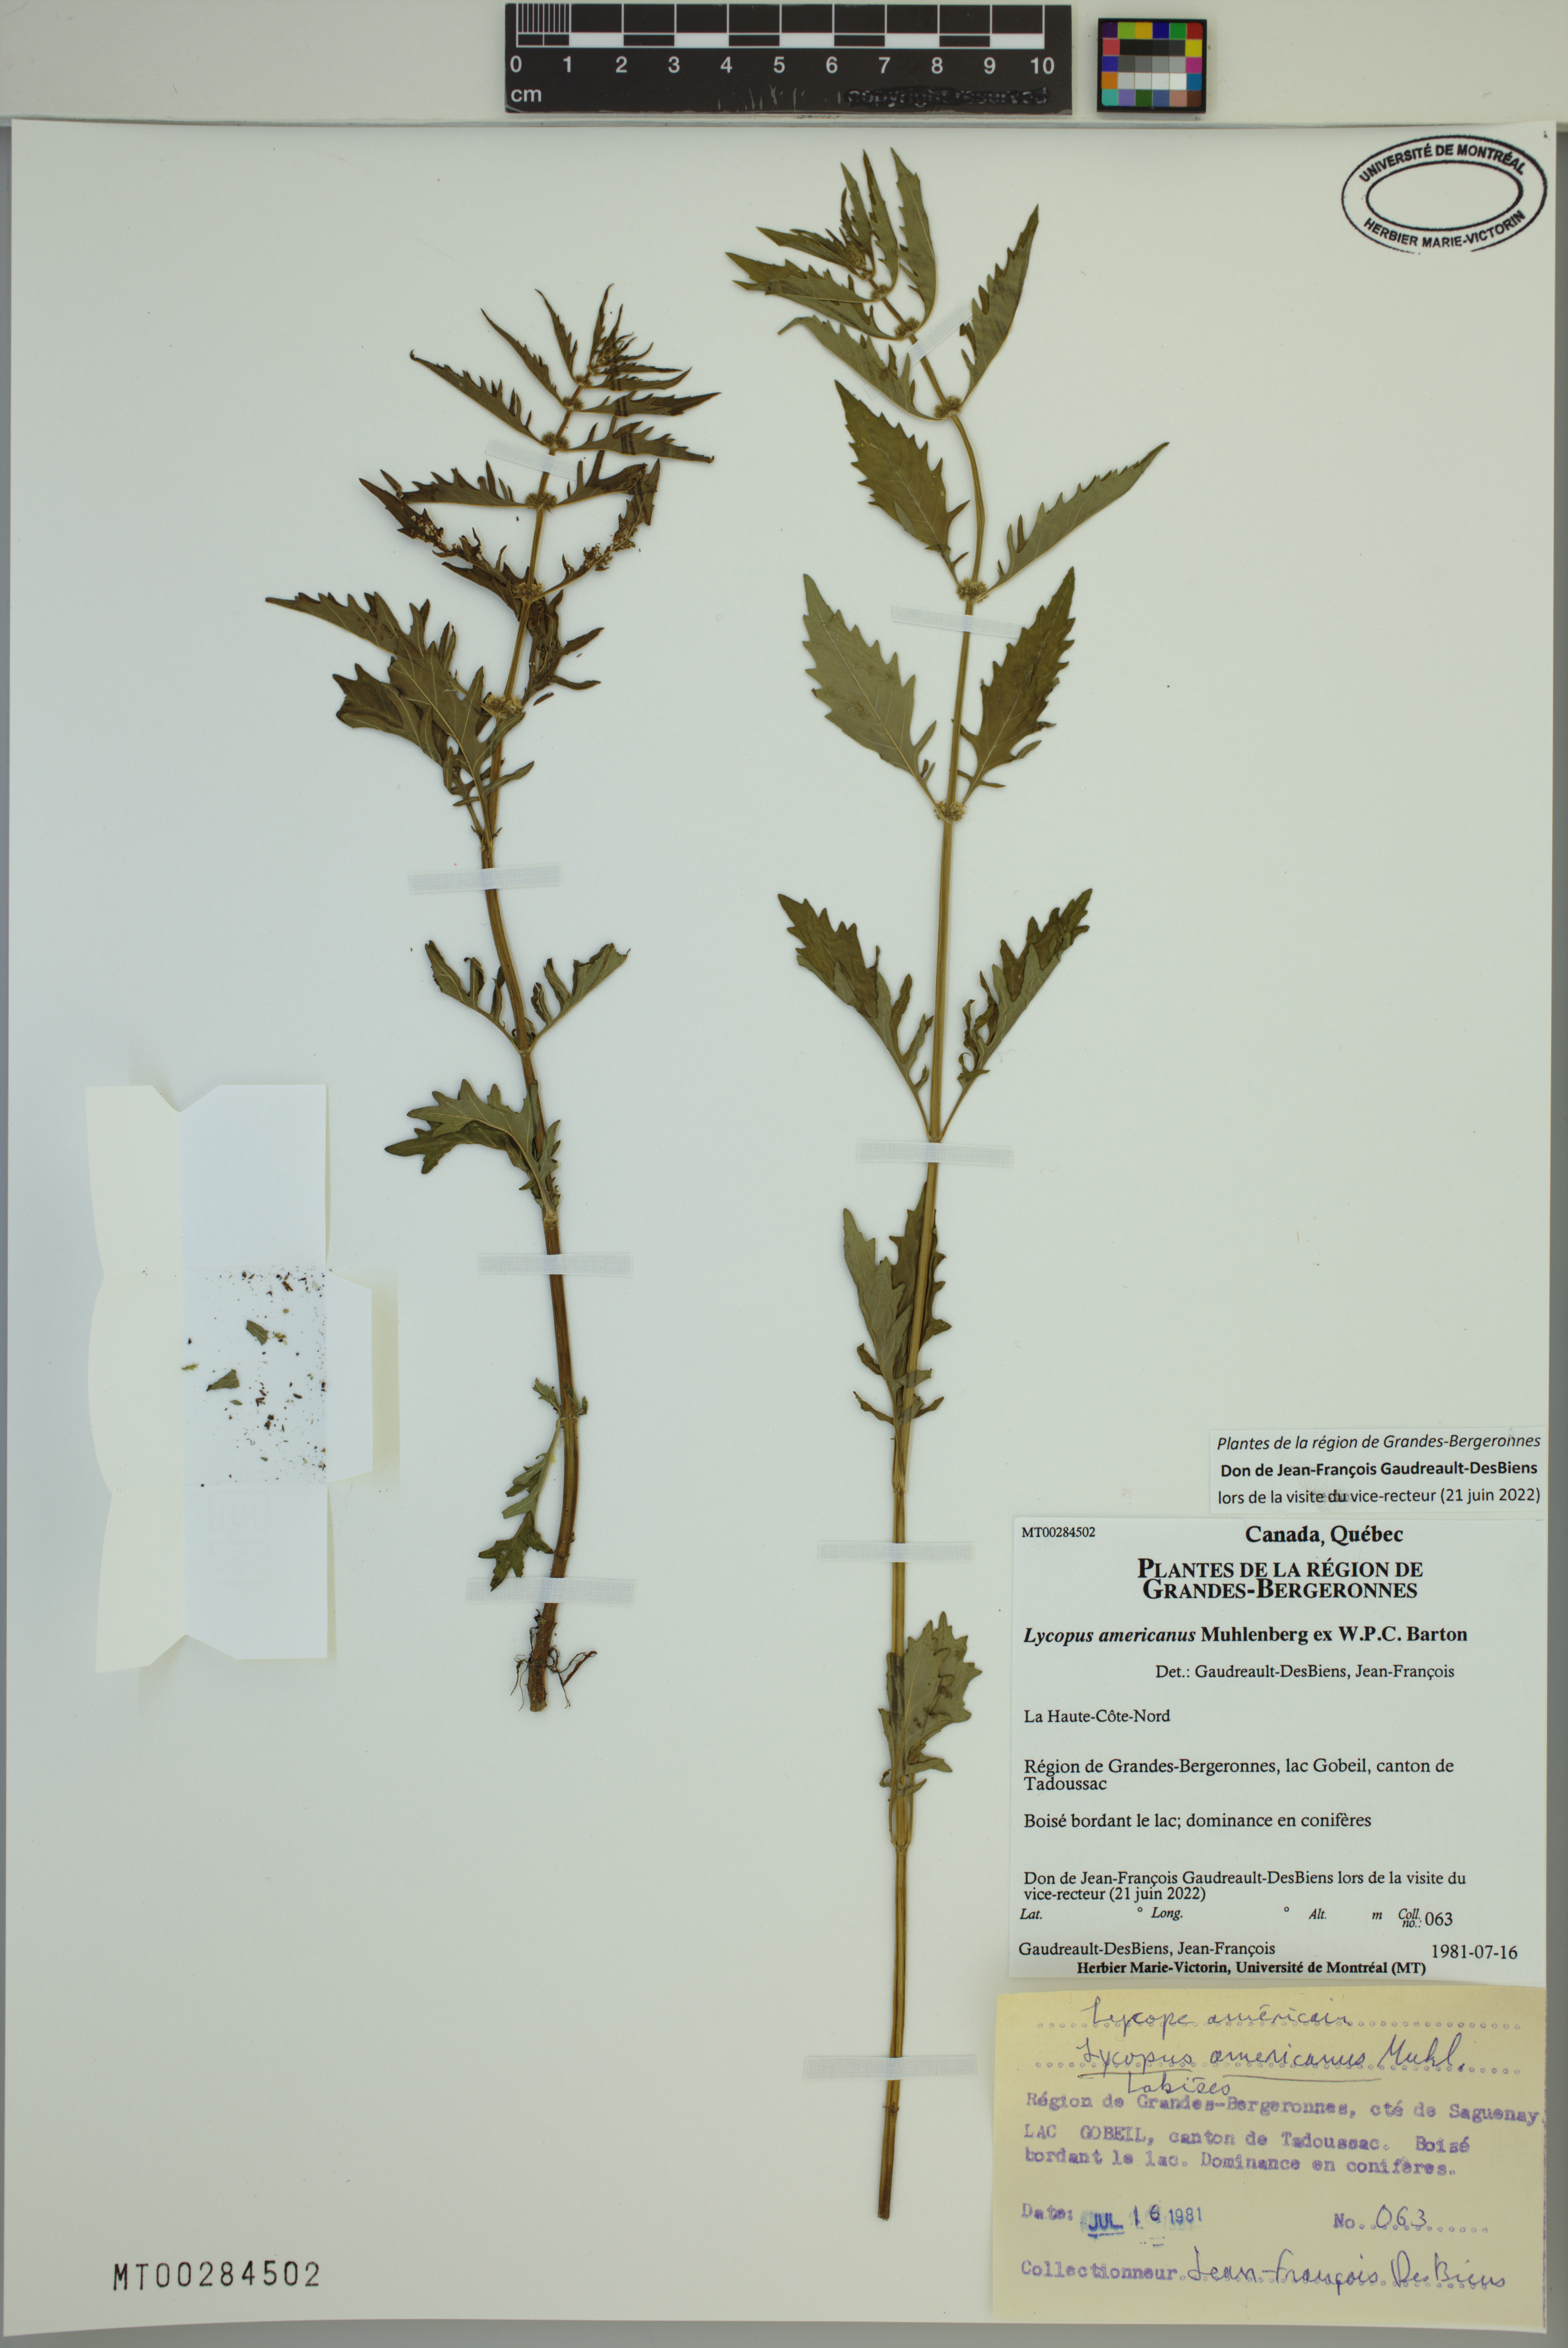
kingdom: Plantae
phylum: Tracheophyta
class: Magnoliopsida
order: Lamiales
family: Lamiaceae
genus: Lycopus
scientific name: Lycopus americanus
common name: American bugleweed
